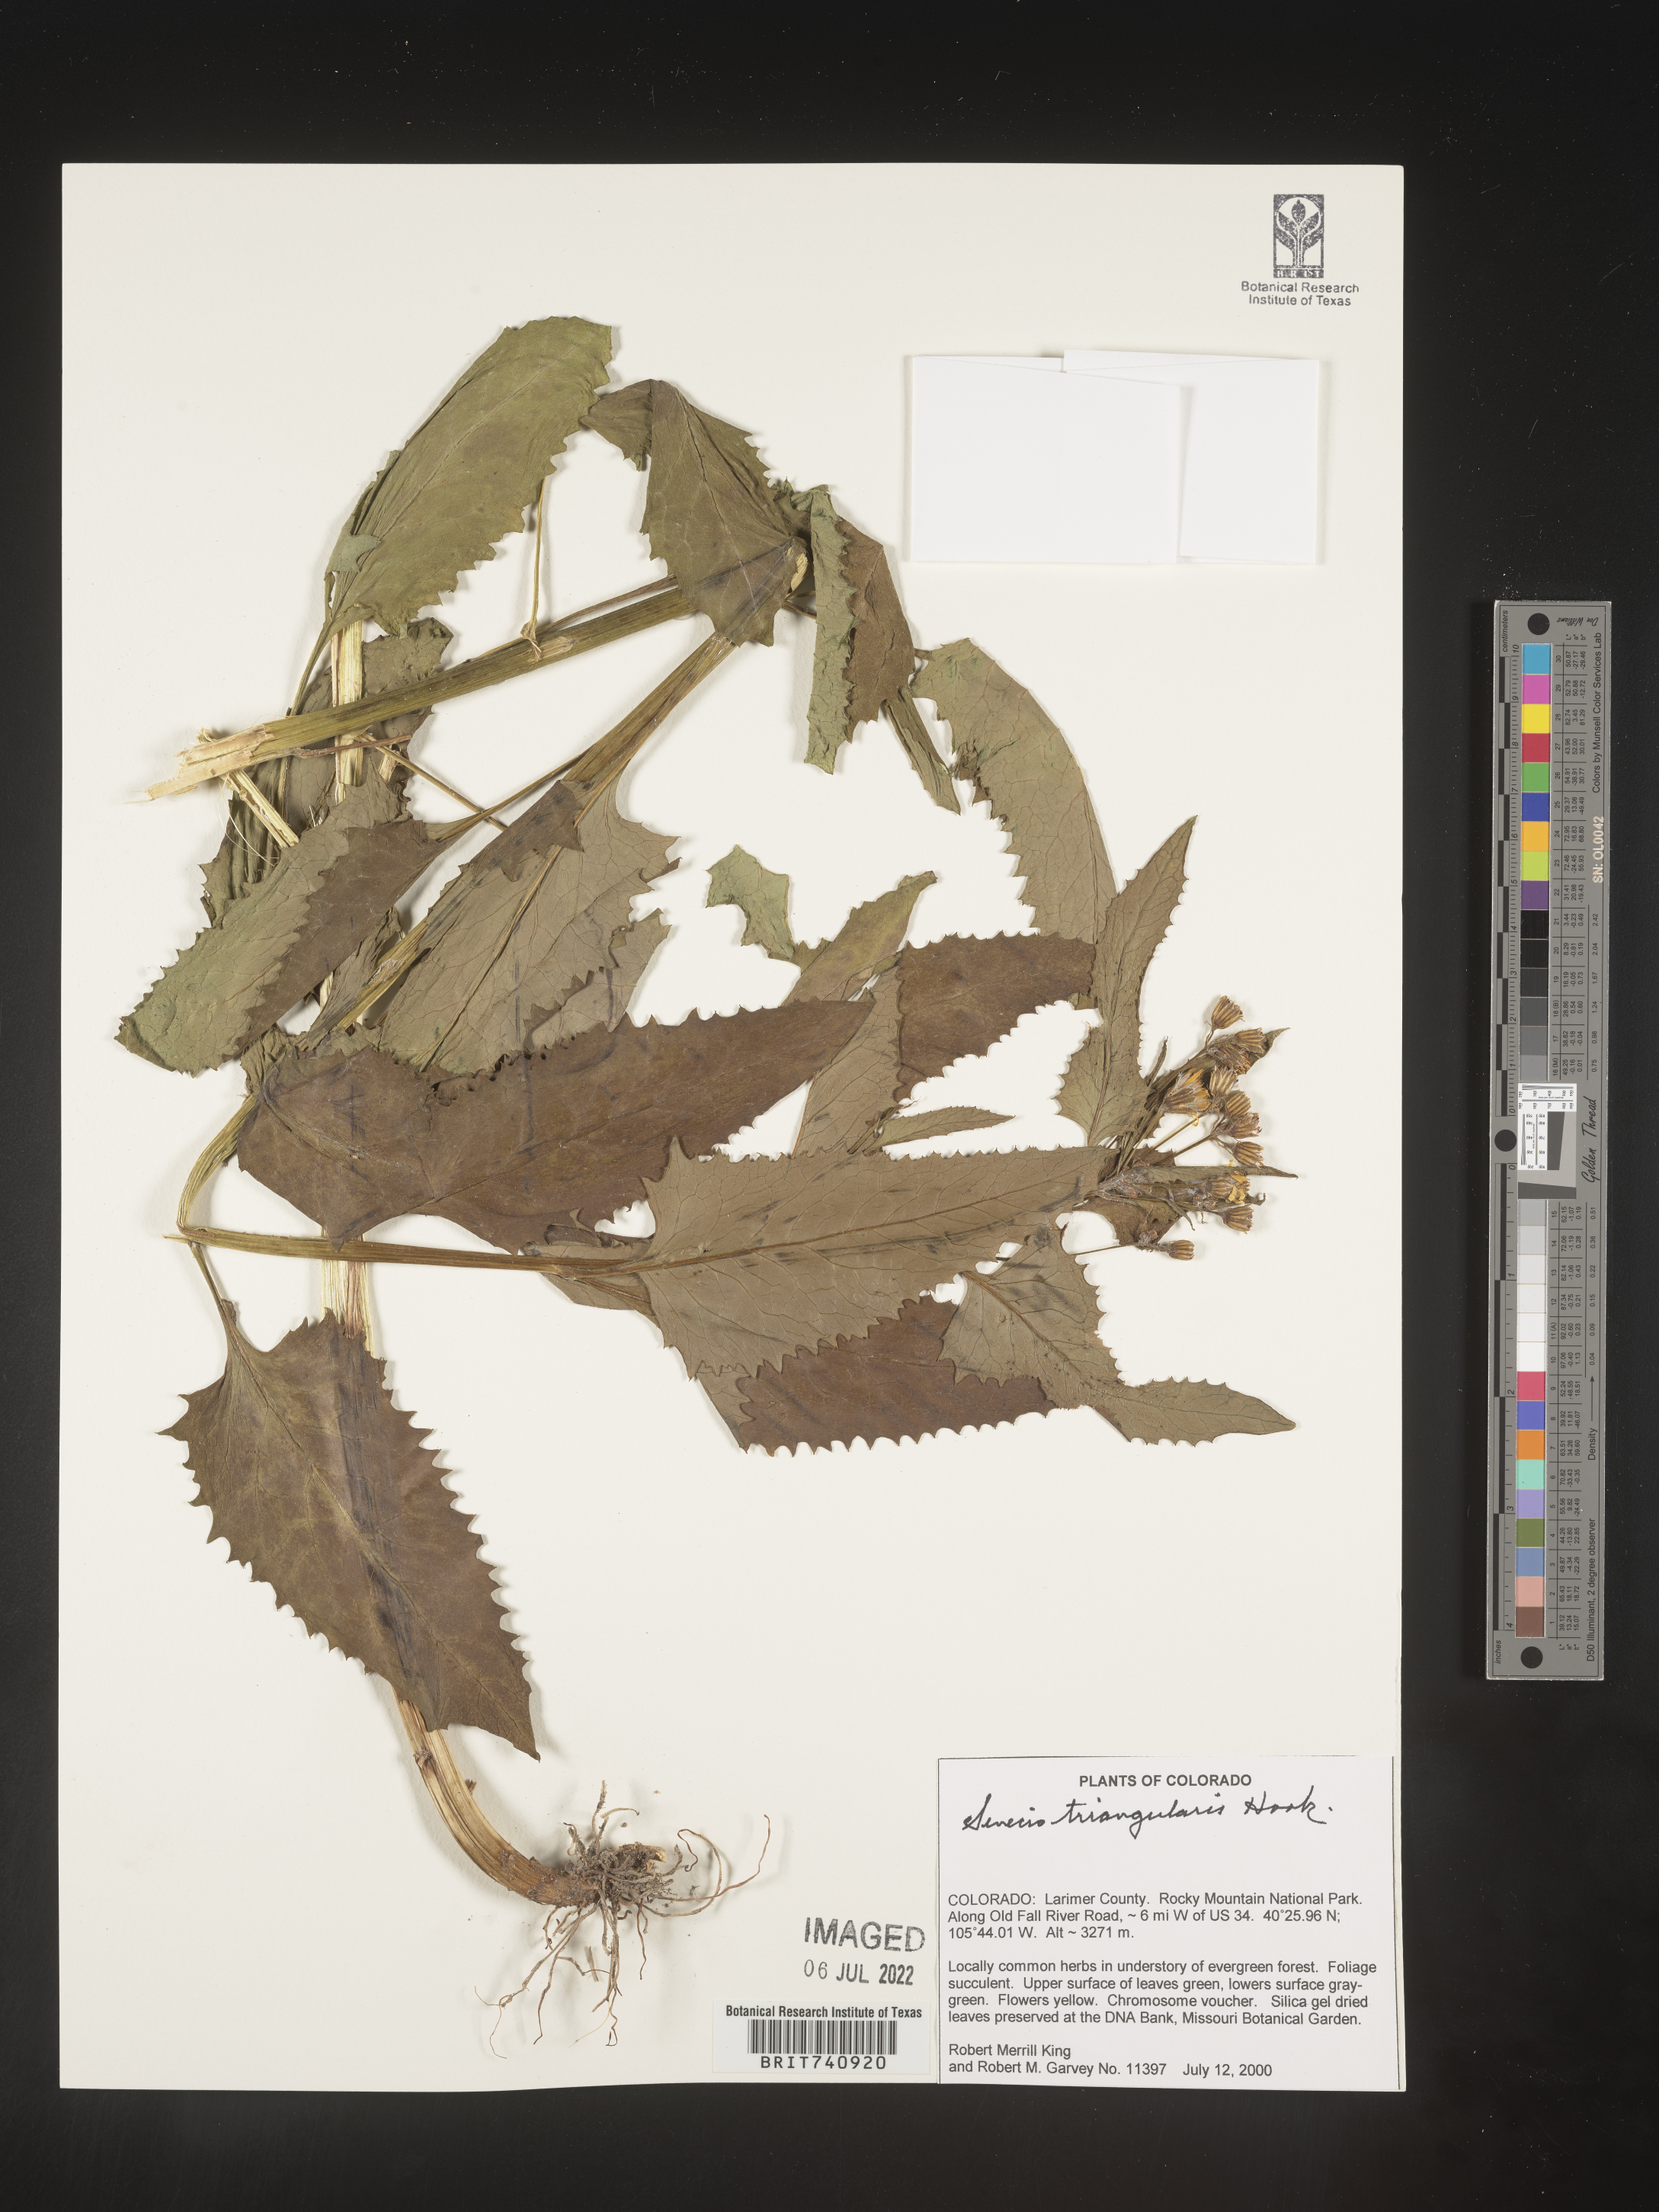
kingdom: Plantae
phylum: Tracheophyta
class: Magnoliopsida
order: Asterales
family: Asteraceae
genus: Senecio
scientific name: Senecio triangularis
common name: Arrowleaf butterweed
